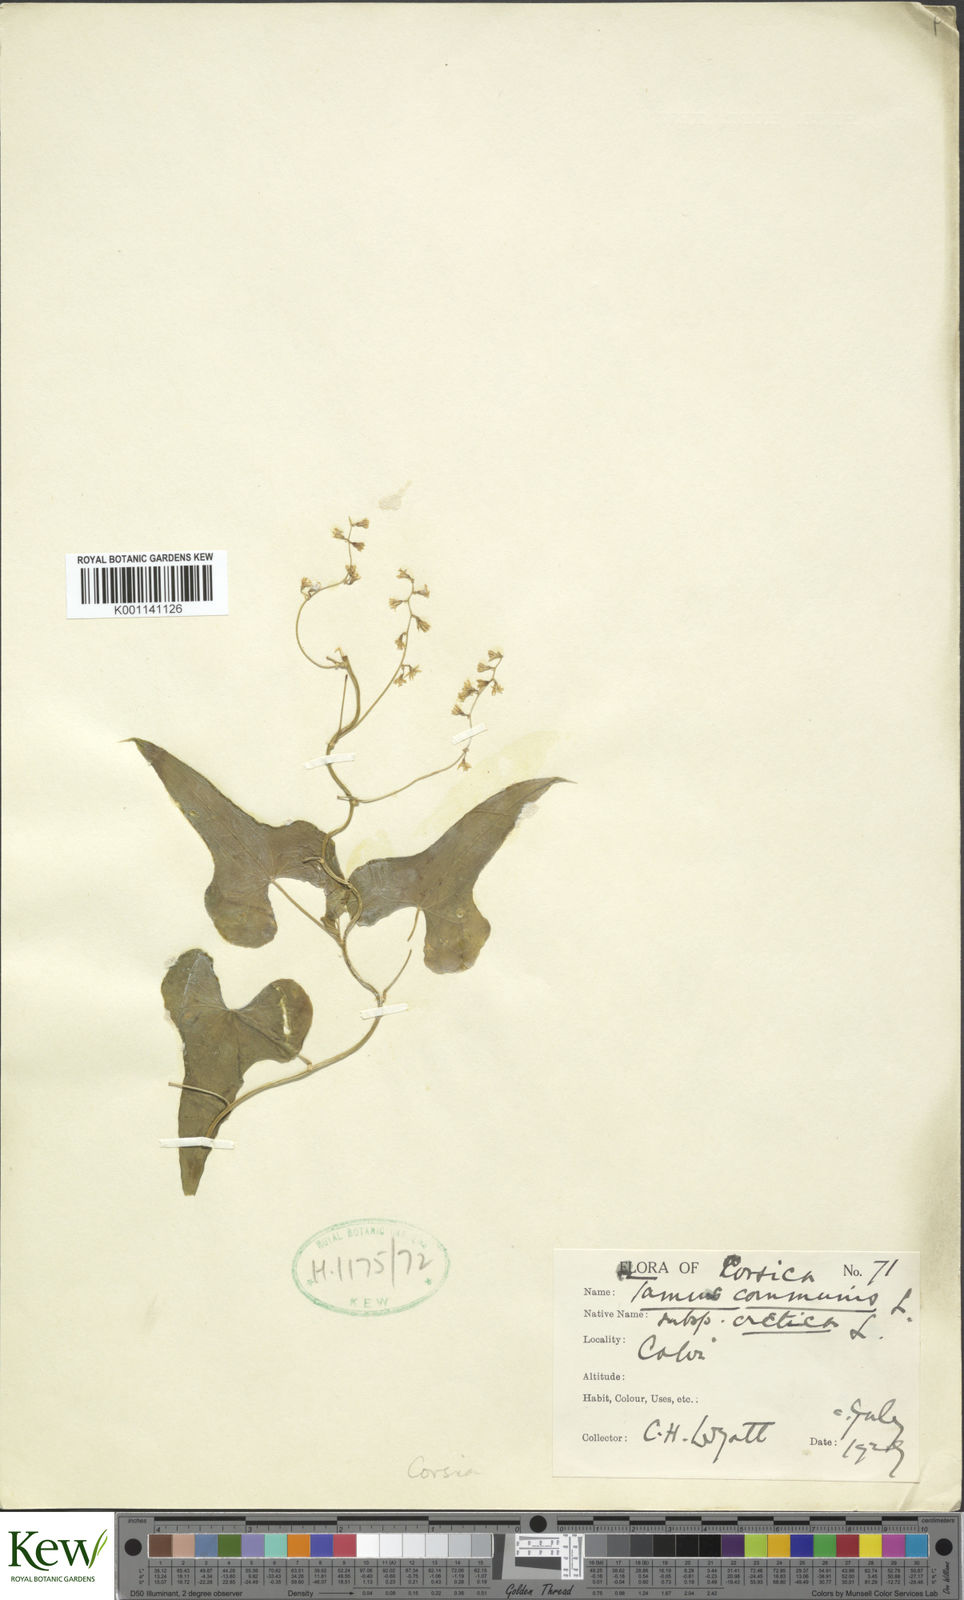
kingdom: Plantae
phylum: Tracheophyta
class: Liliopsida
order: Dioscoreales
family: Dioscoreaceae
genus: Dioscorea
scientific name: Dioscorea communis
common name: Black-bindweed
